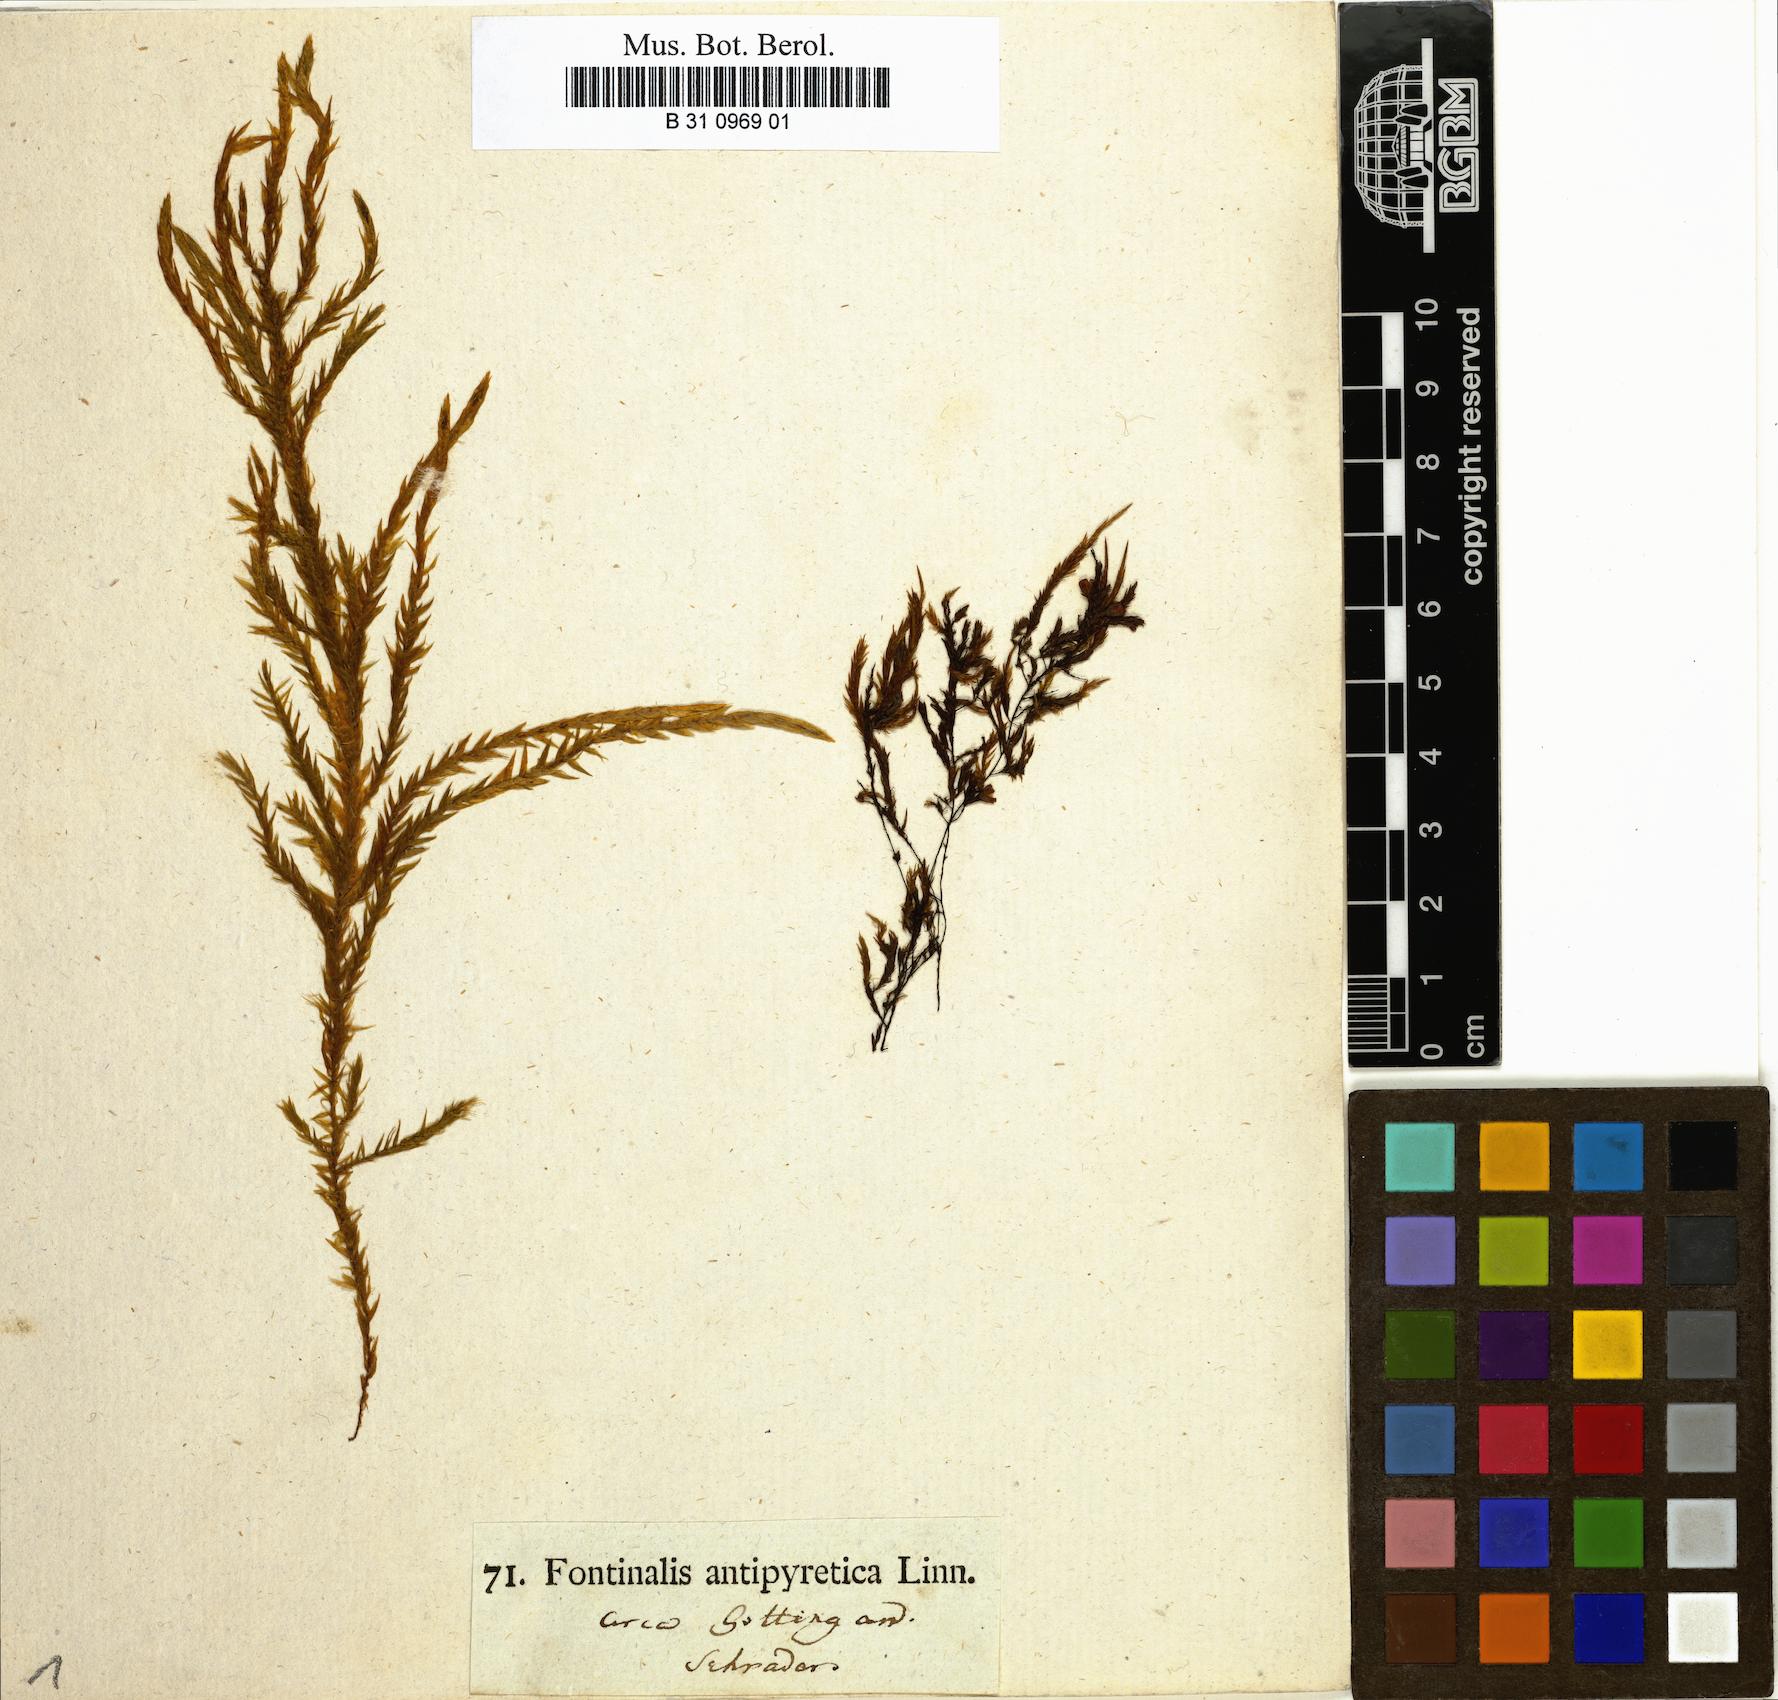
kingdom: Plantae
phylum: Bryophyta
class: Bryopsida
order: Hypnales
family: Fontinalaceae
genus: Fontinalis
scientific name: Fontinalis antipyretica
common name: Greater water-moss
